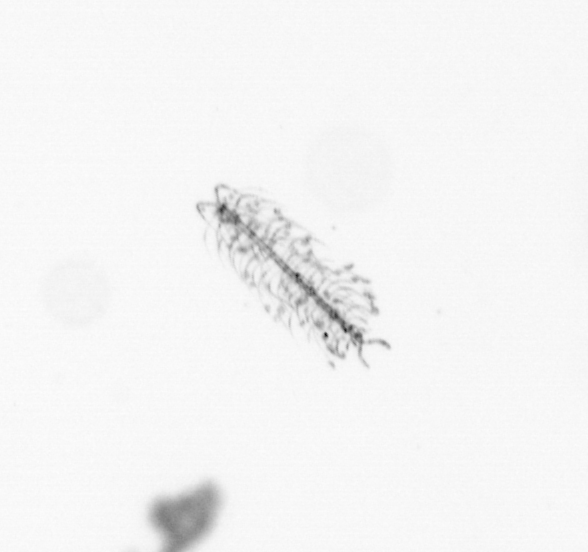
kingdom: Chromista
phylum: Ochrophyta
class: Bacillariophyceae
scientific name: Bacillariophyceae
